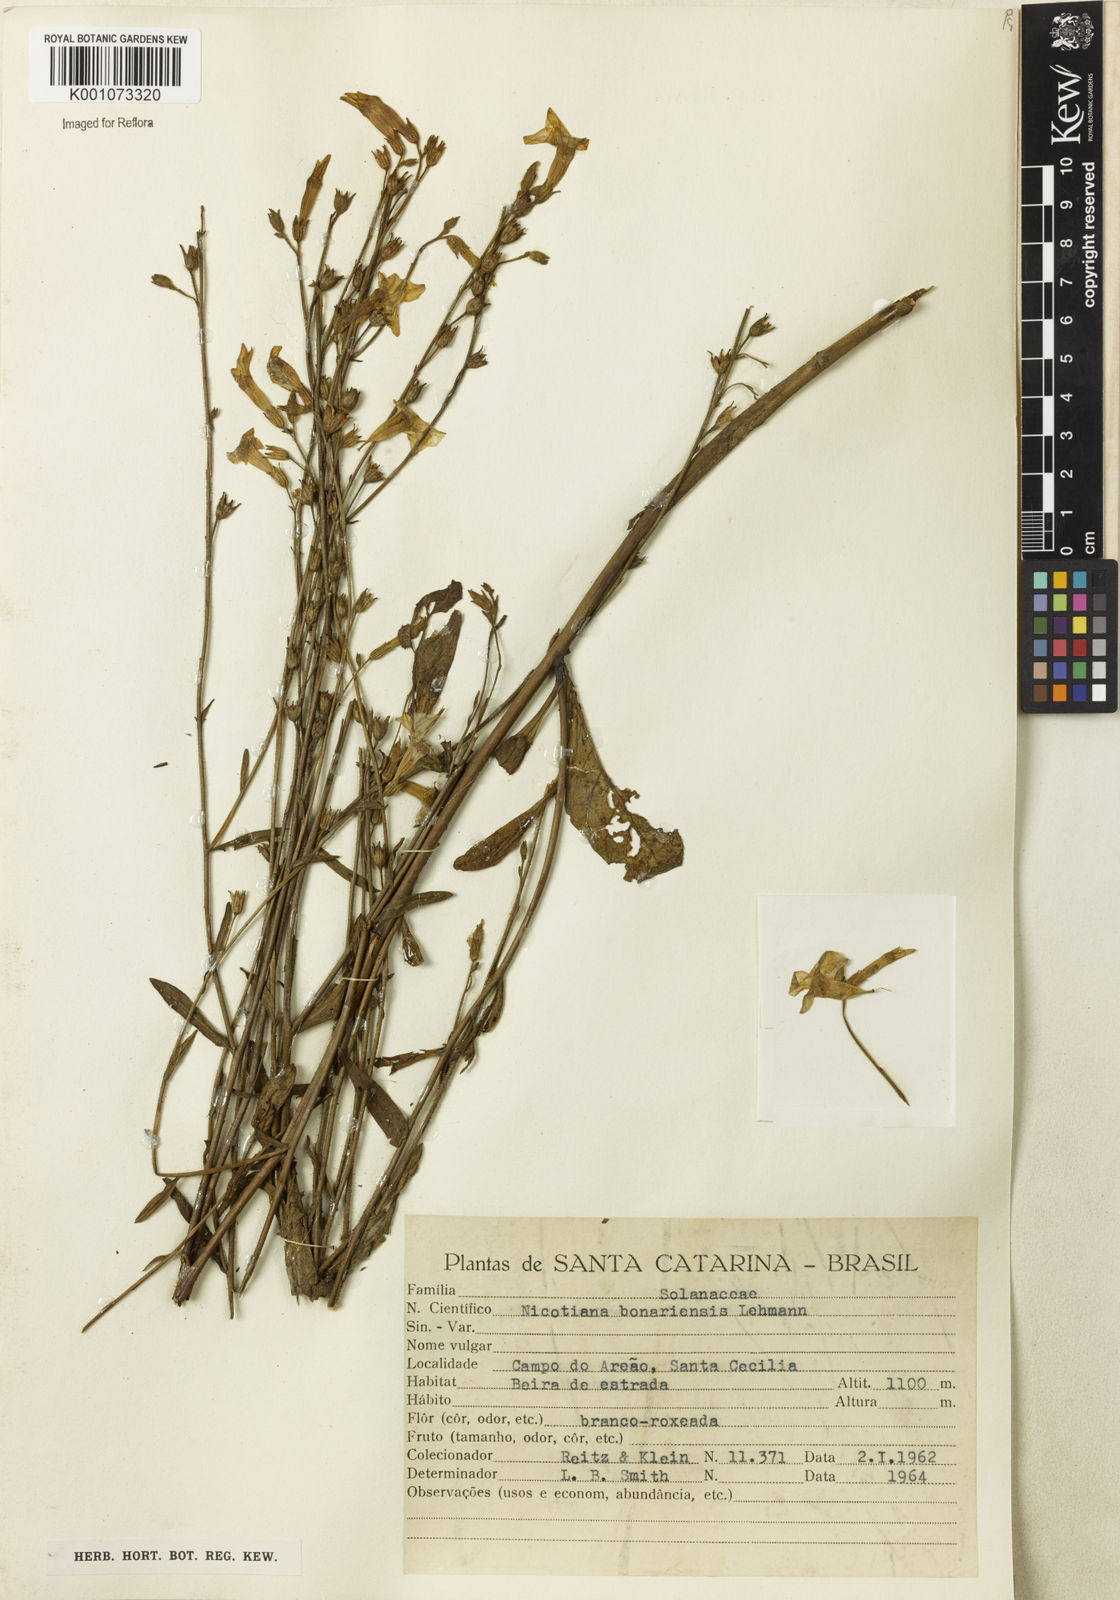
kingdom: Plantae
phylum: Tracheophyta
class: Magnoliopsida
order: Solanales
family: Solanaceae
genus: Nicotiana
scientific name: Nicotiana bonariensis
